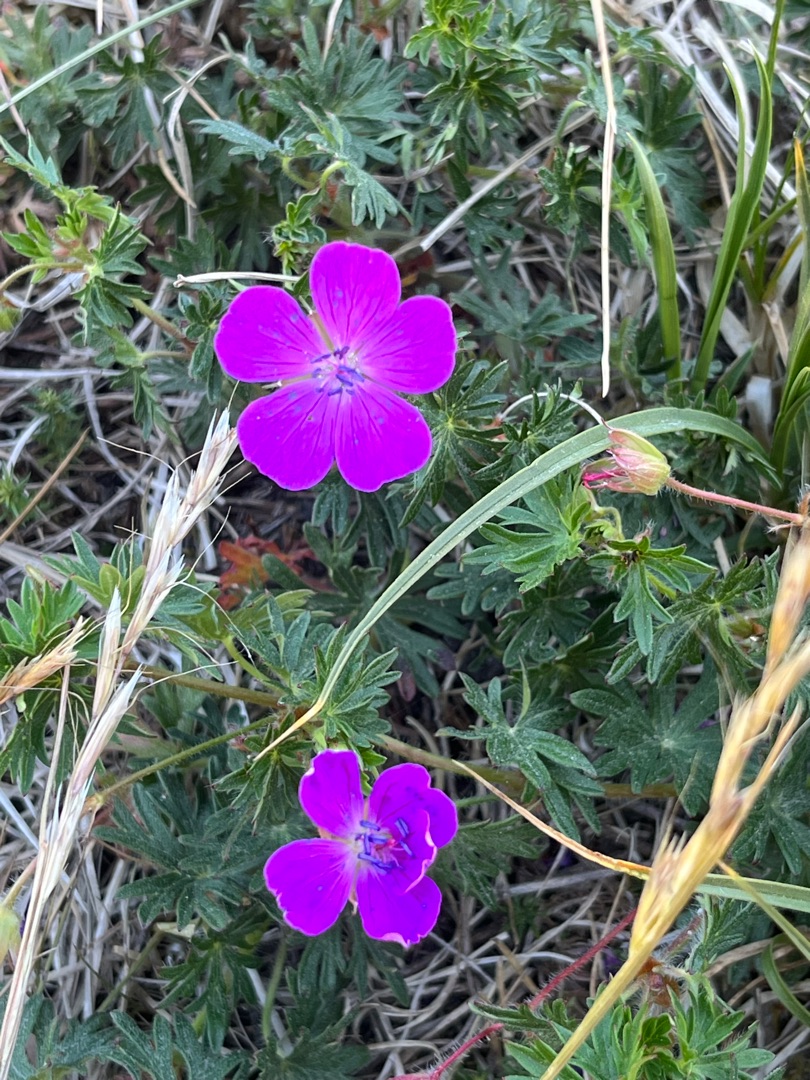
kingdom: Plantae
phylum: Tracheophyta
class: Magnoliopsida
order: Geraniales
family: Geraniaceae
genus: Geranium
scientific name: Geranium sanguineum
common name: Blodrød storkenæb
